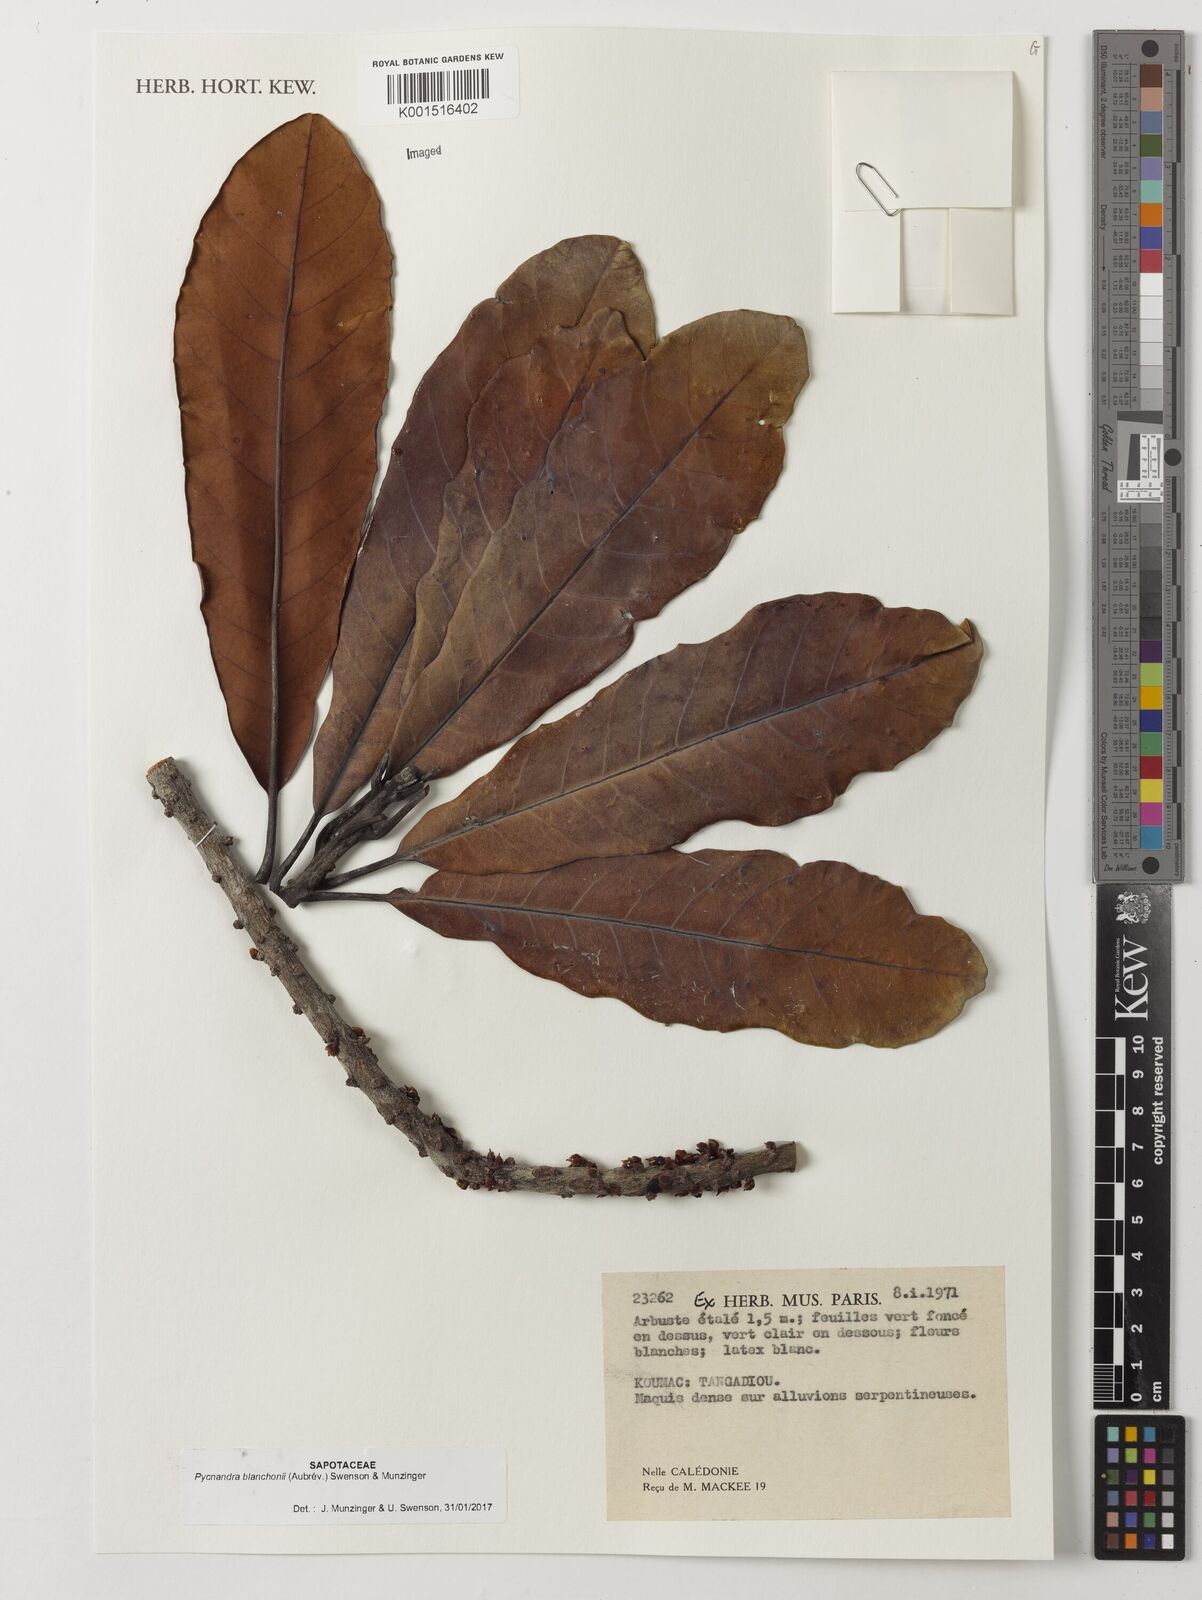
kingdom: Plantae
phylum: Tracheophyta
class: Magnoliopsida
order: Ericales
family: Sapotaceae
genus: Pycnandra
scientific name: Pycnandra blanchonii
